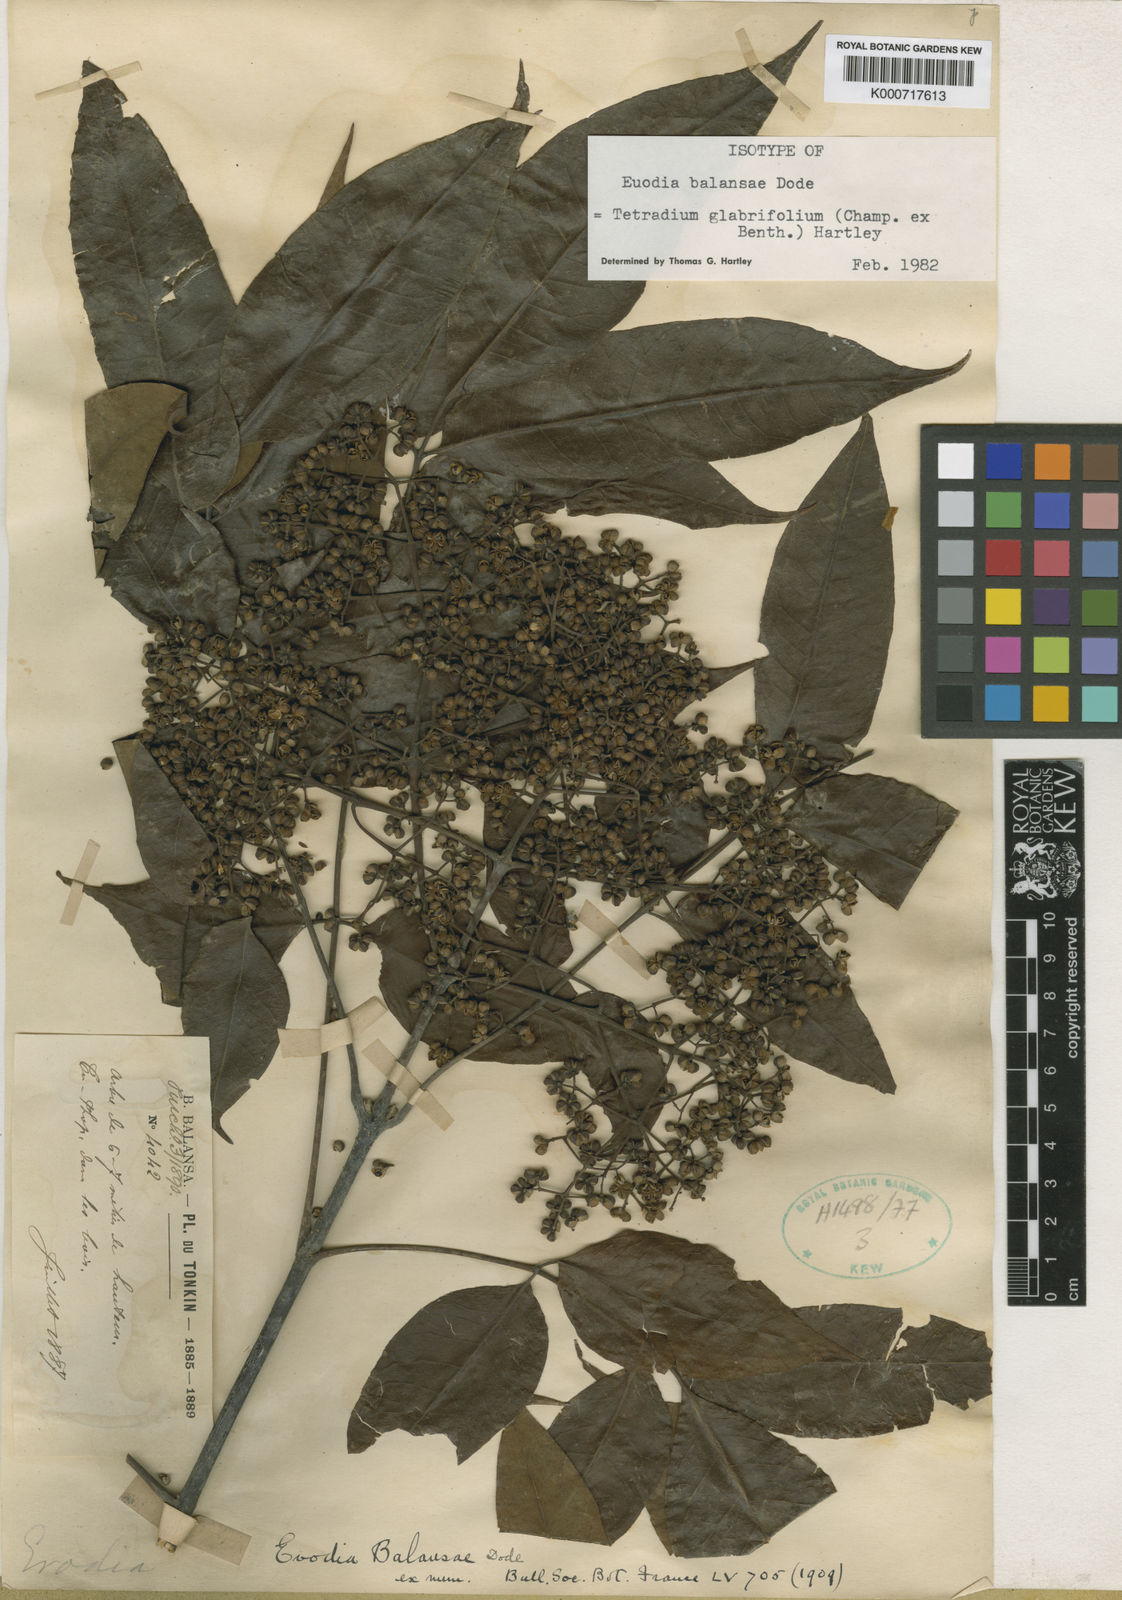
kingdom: Plantae
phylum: Tracheophyta
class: Magnoliopsida
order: Sapindales
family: Rutaceae
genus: Tetradium
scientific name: Tetradium glabrifolium
